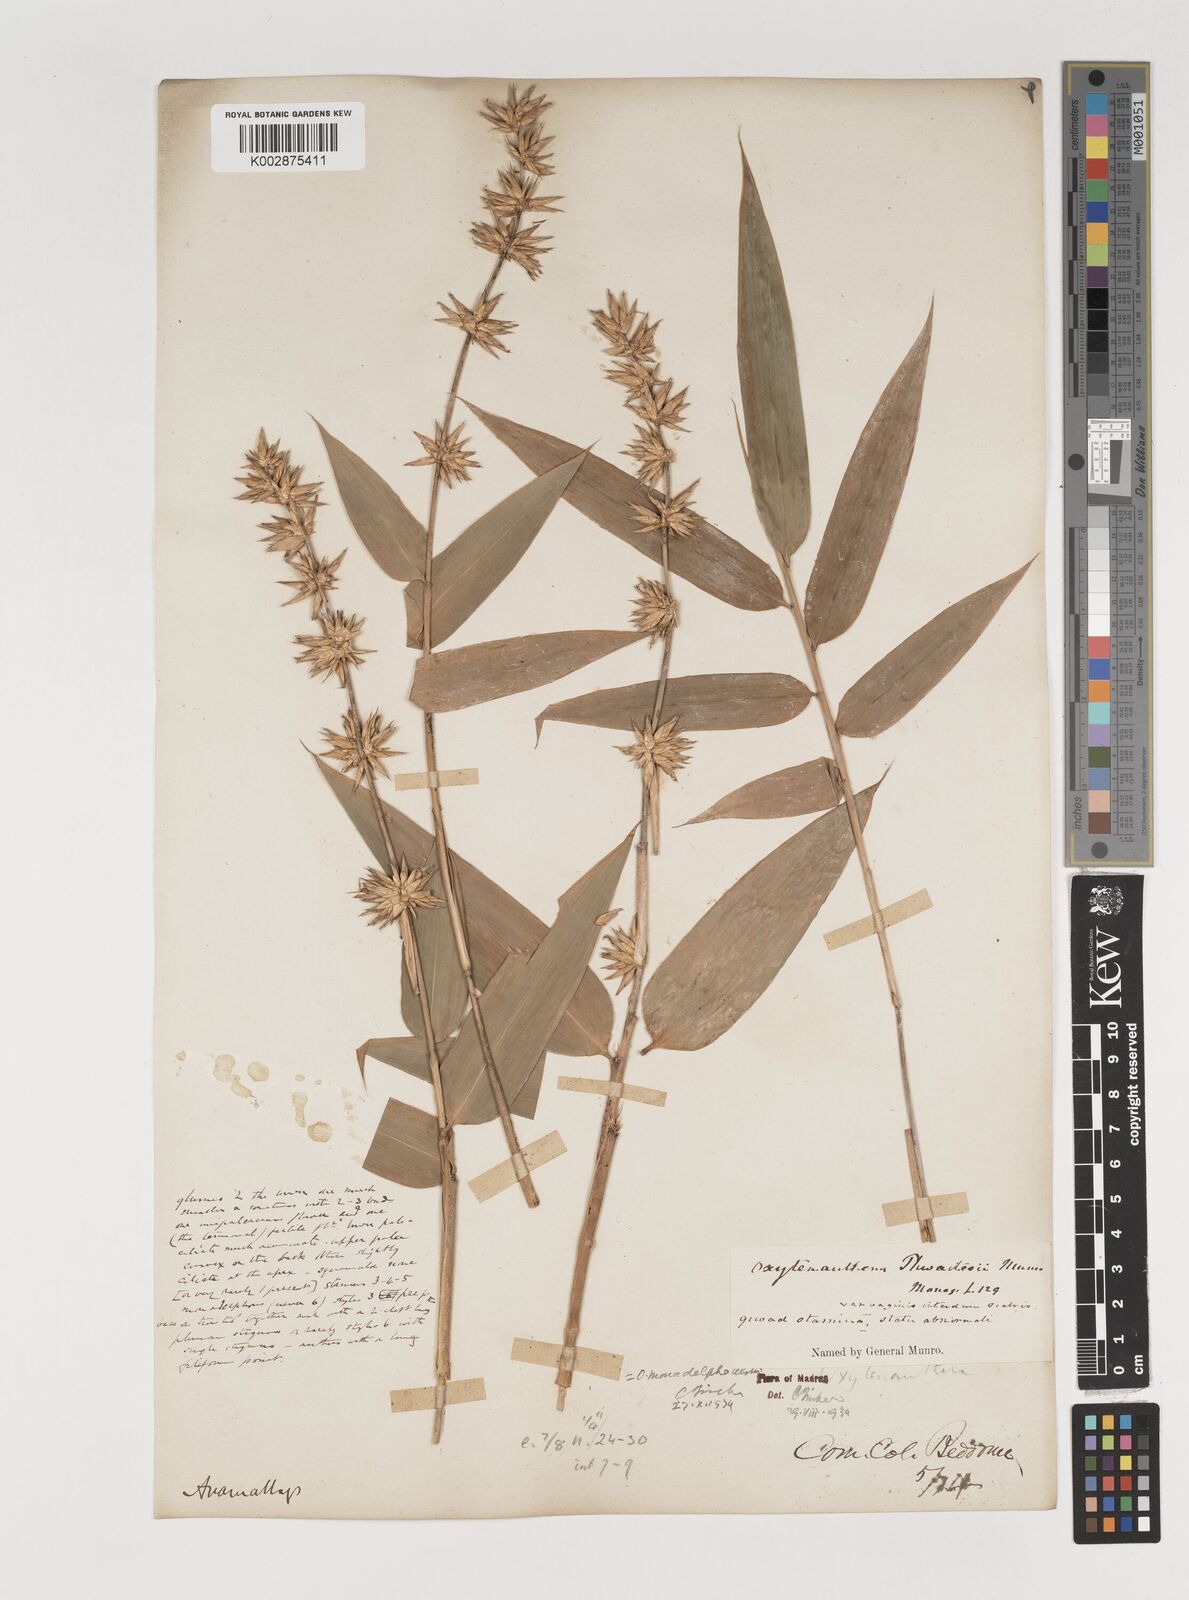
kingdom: Plantae
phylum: Tracheophyta
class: Liliopsida
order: Poales
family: Poaceae
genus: Pseudoxytenanthera
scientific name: Pseudoxytenanthera monadelpha
